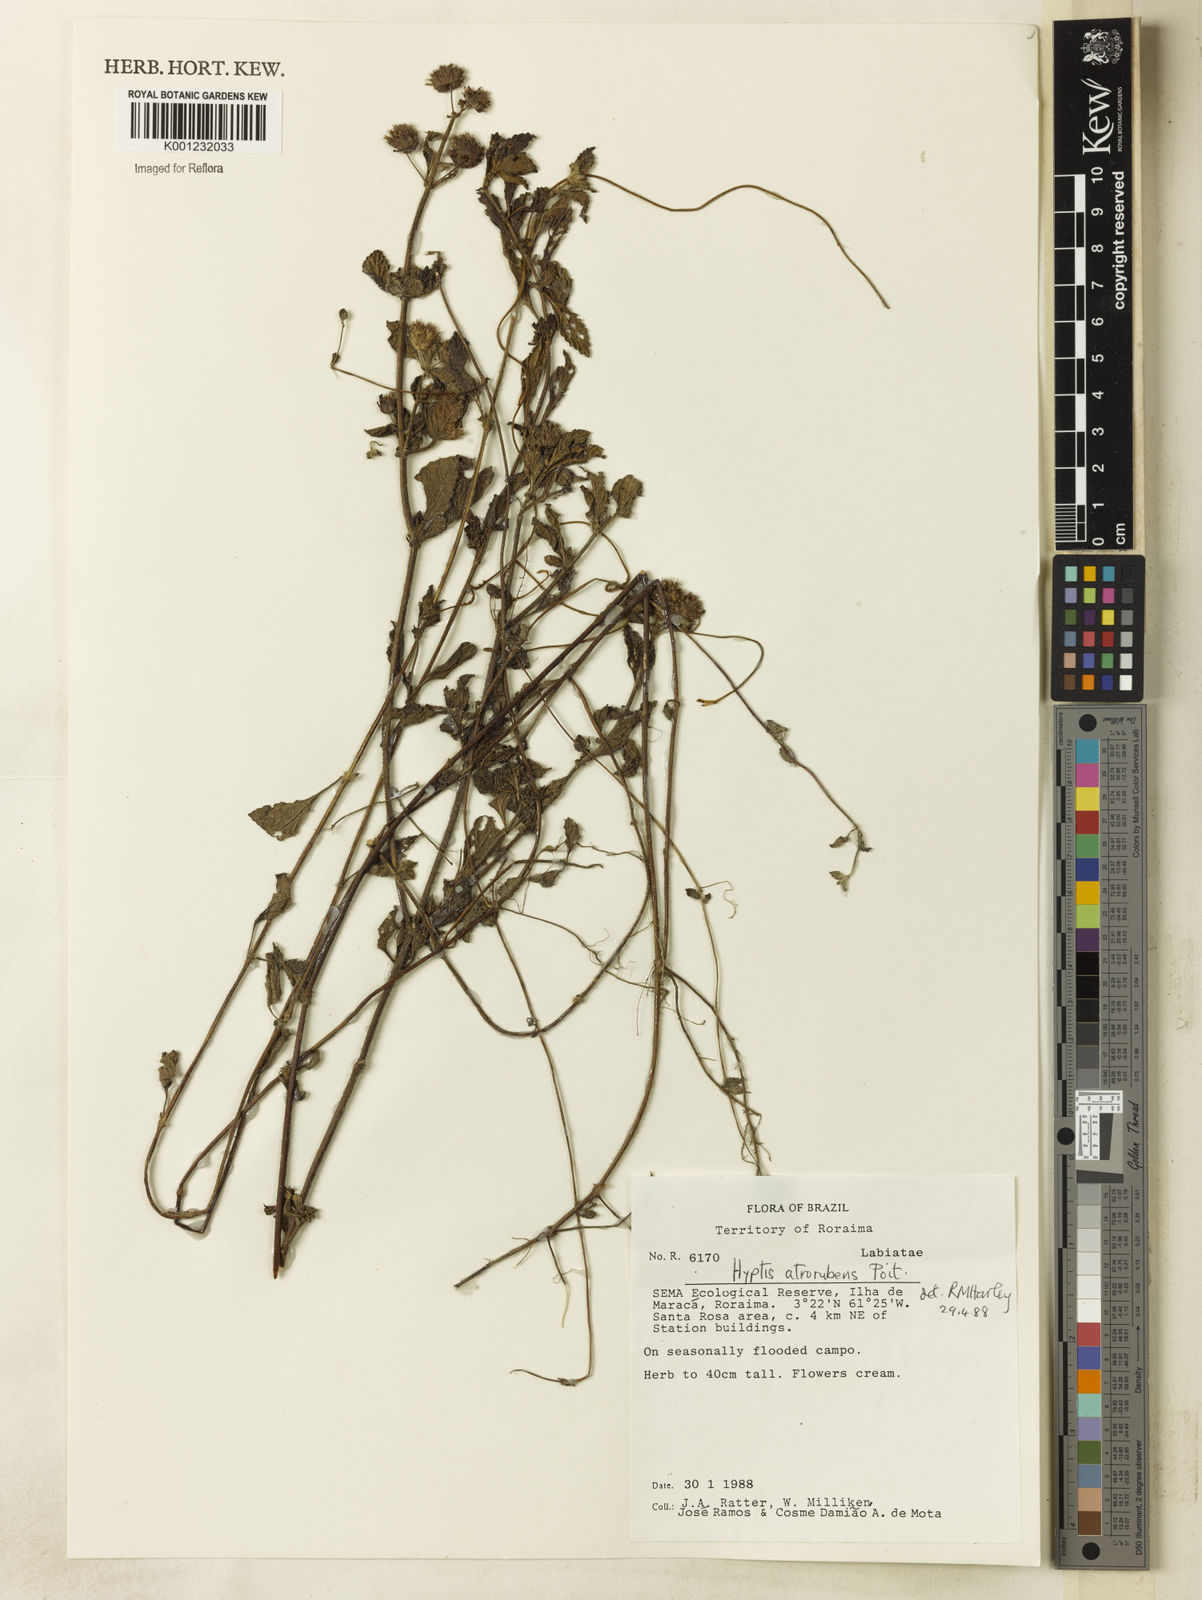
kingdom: Plantae
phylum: Tracheophyta
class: Magnoliopsida
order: Lamiales
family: Lamiaceae
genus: Hyptis
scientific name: Hyptis atrorubens
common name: Lanmant
